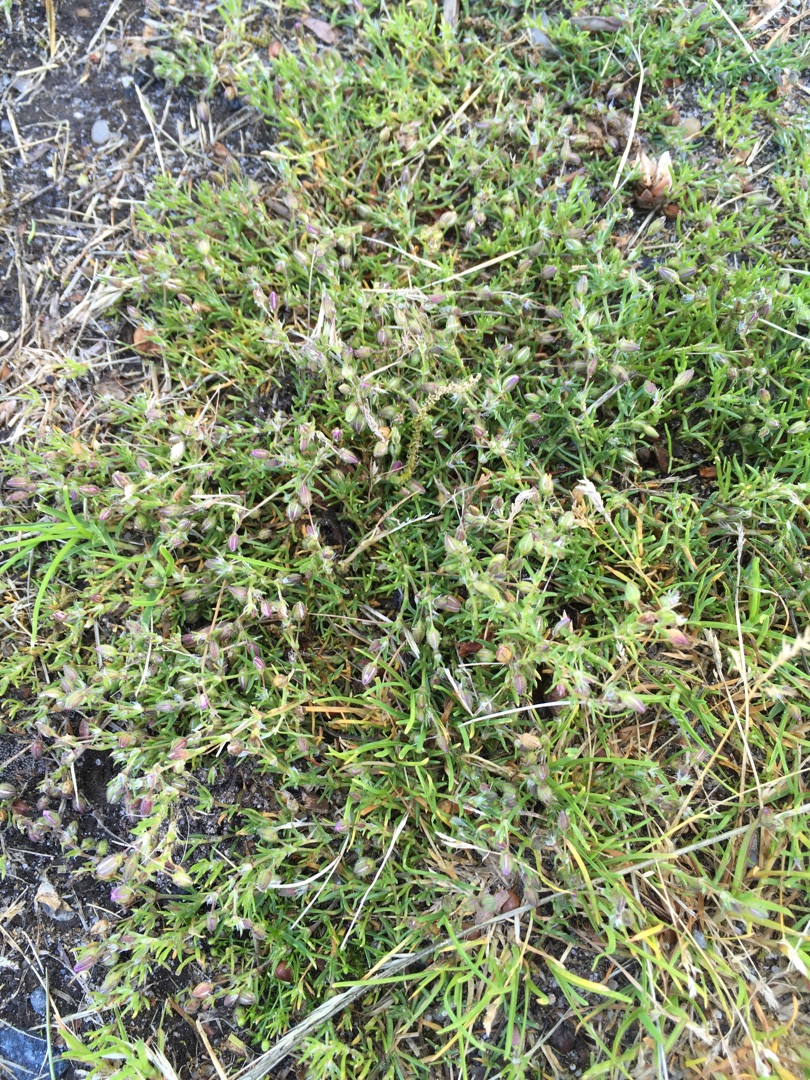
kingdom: Plantae
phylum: Tracheophyta
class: Magnoliopsida
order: Caryophyllales
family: Caryophyllaceae
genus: Spergularia
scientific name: Spergularia rubra
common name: Mark-hindeknæ
